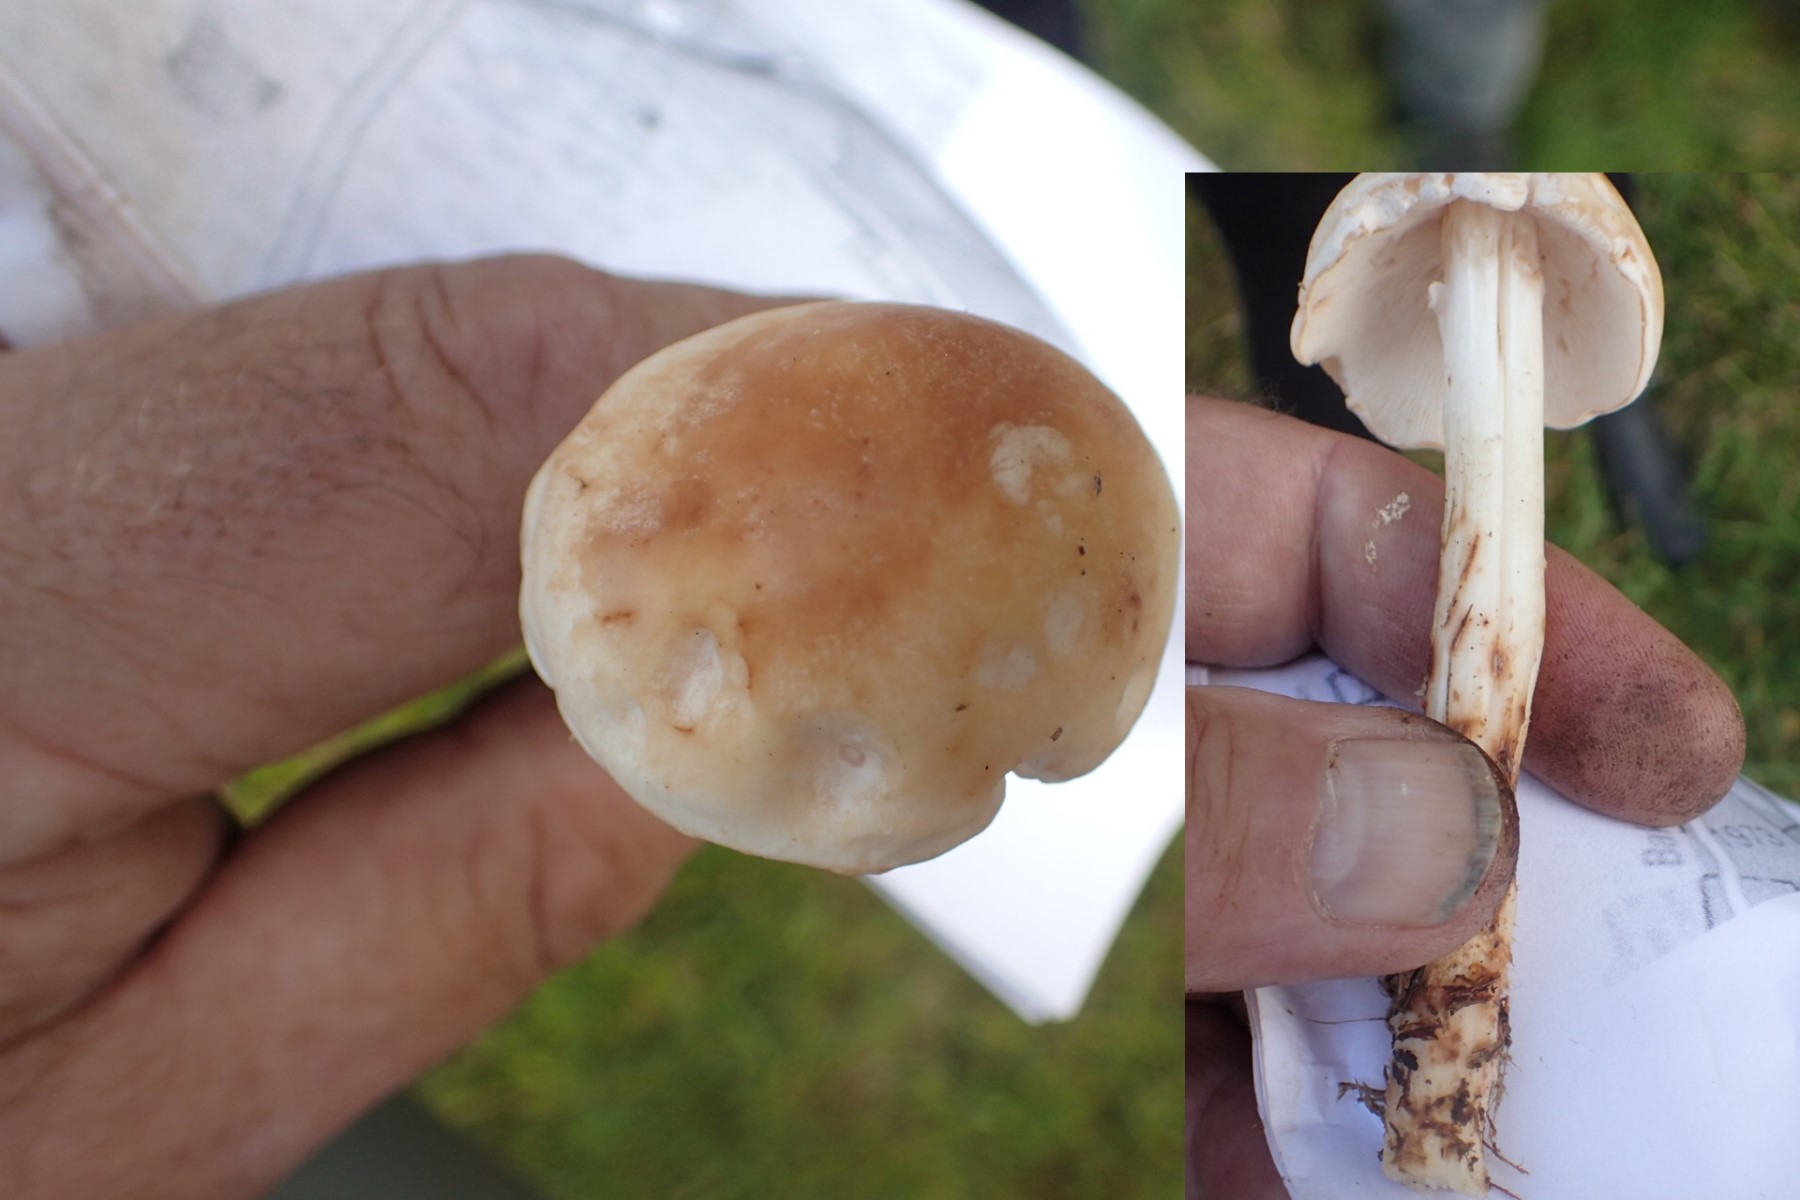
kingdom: Fungi
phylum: Basidiomycota
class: Agaricomycetes
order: Agaricales
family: Omphalotaceae
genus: Rhodocollybia
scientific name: Rhodocollybia maculata
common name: plettet fladhat
